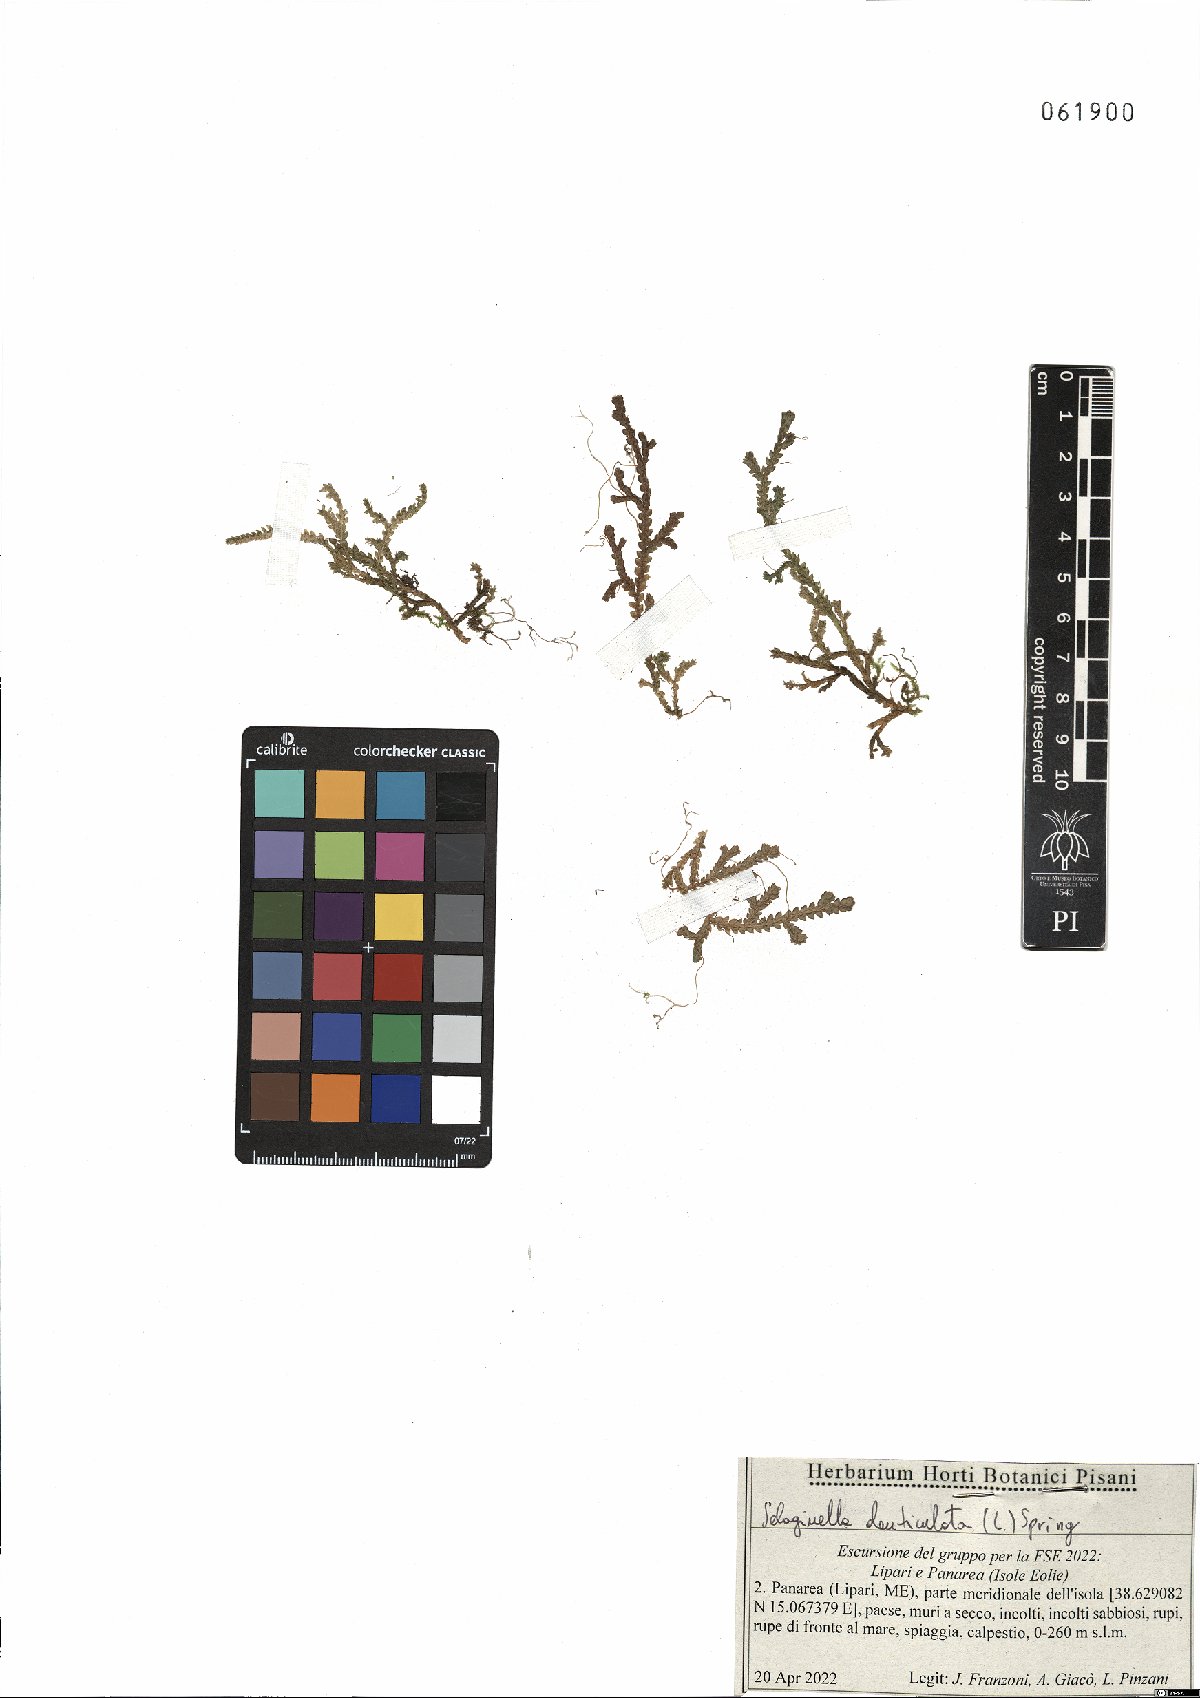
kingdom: Plantae
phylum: Tracheophyta
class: Lycopodiopsida
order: Selaginellales
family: Selaginellaceae
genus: Selaginella
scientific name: Selaginella denticulata
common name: Toothed-leaved clubmoss
